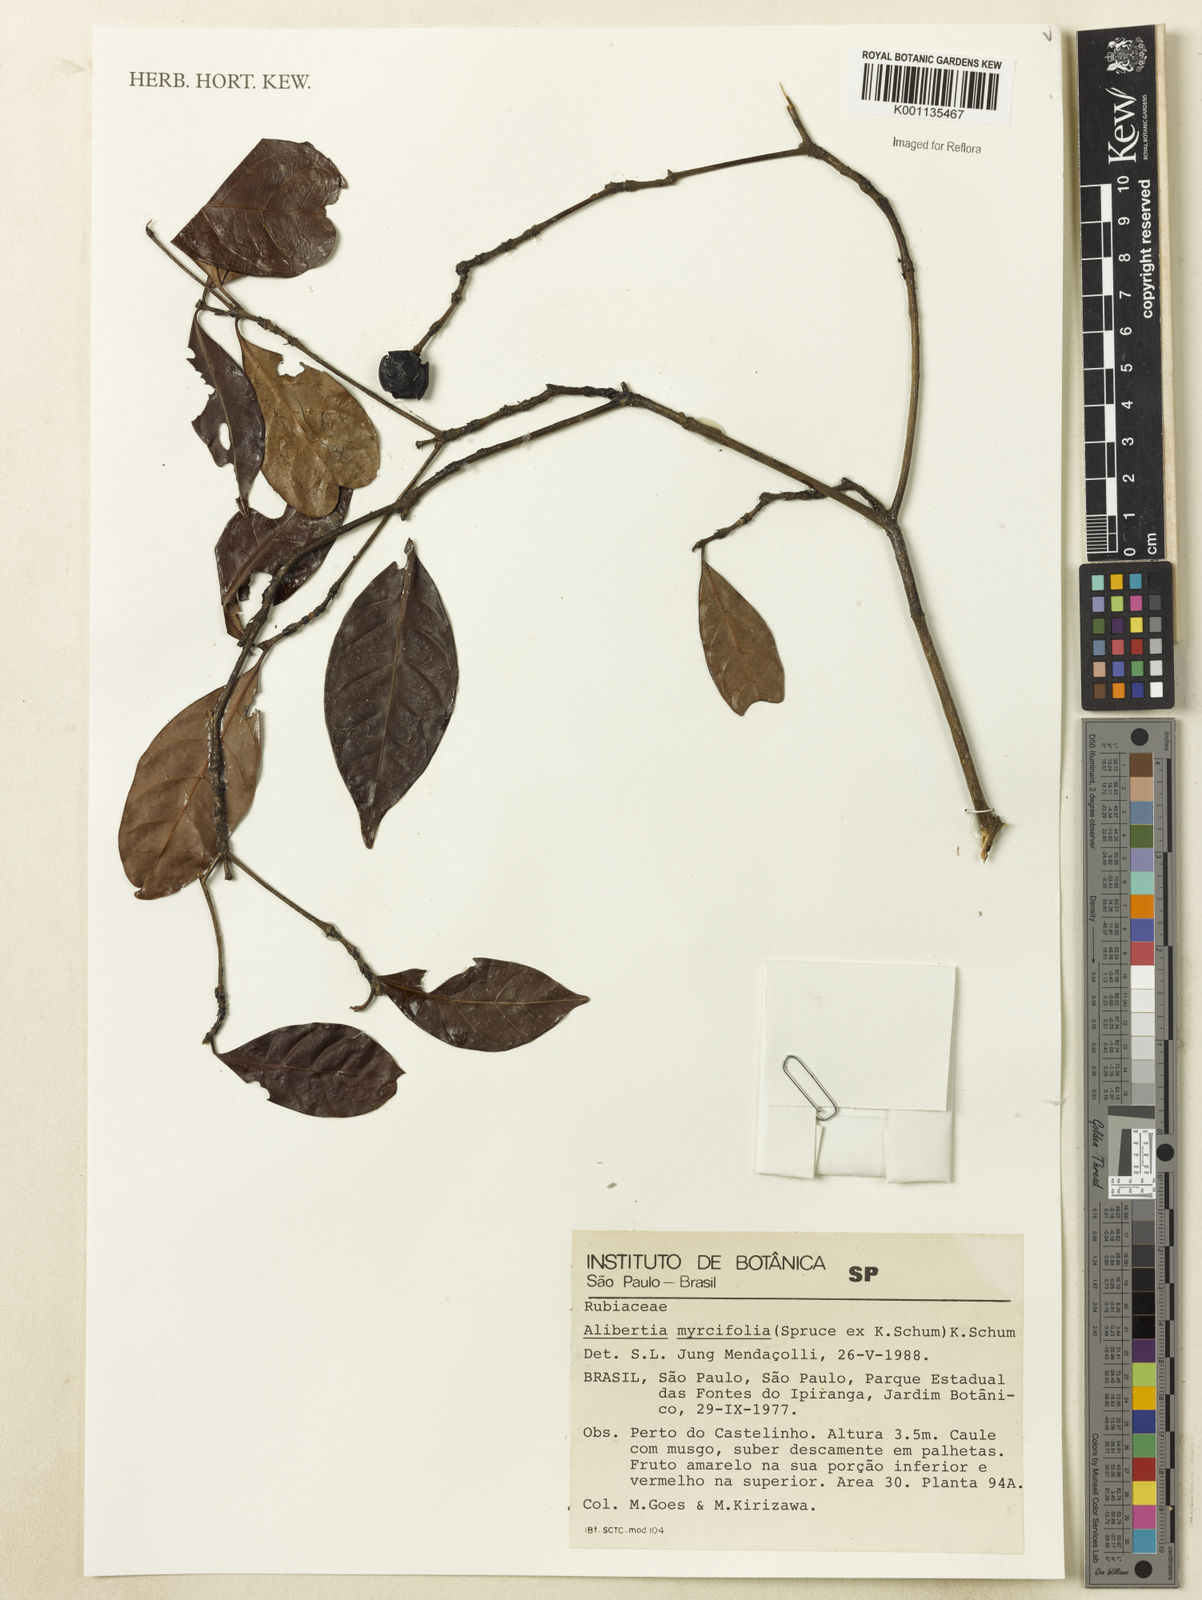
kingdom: Plantae
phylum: Tracheophyta
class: Magnoliopsida
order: Gentianales
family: Rubiaceae
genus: Cordiera
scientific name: Cordiera myrciifolia
